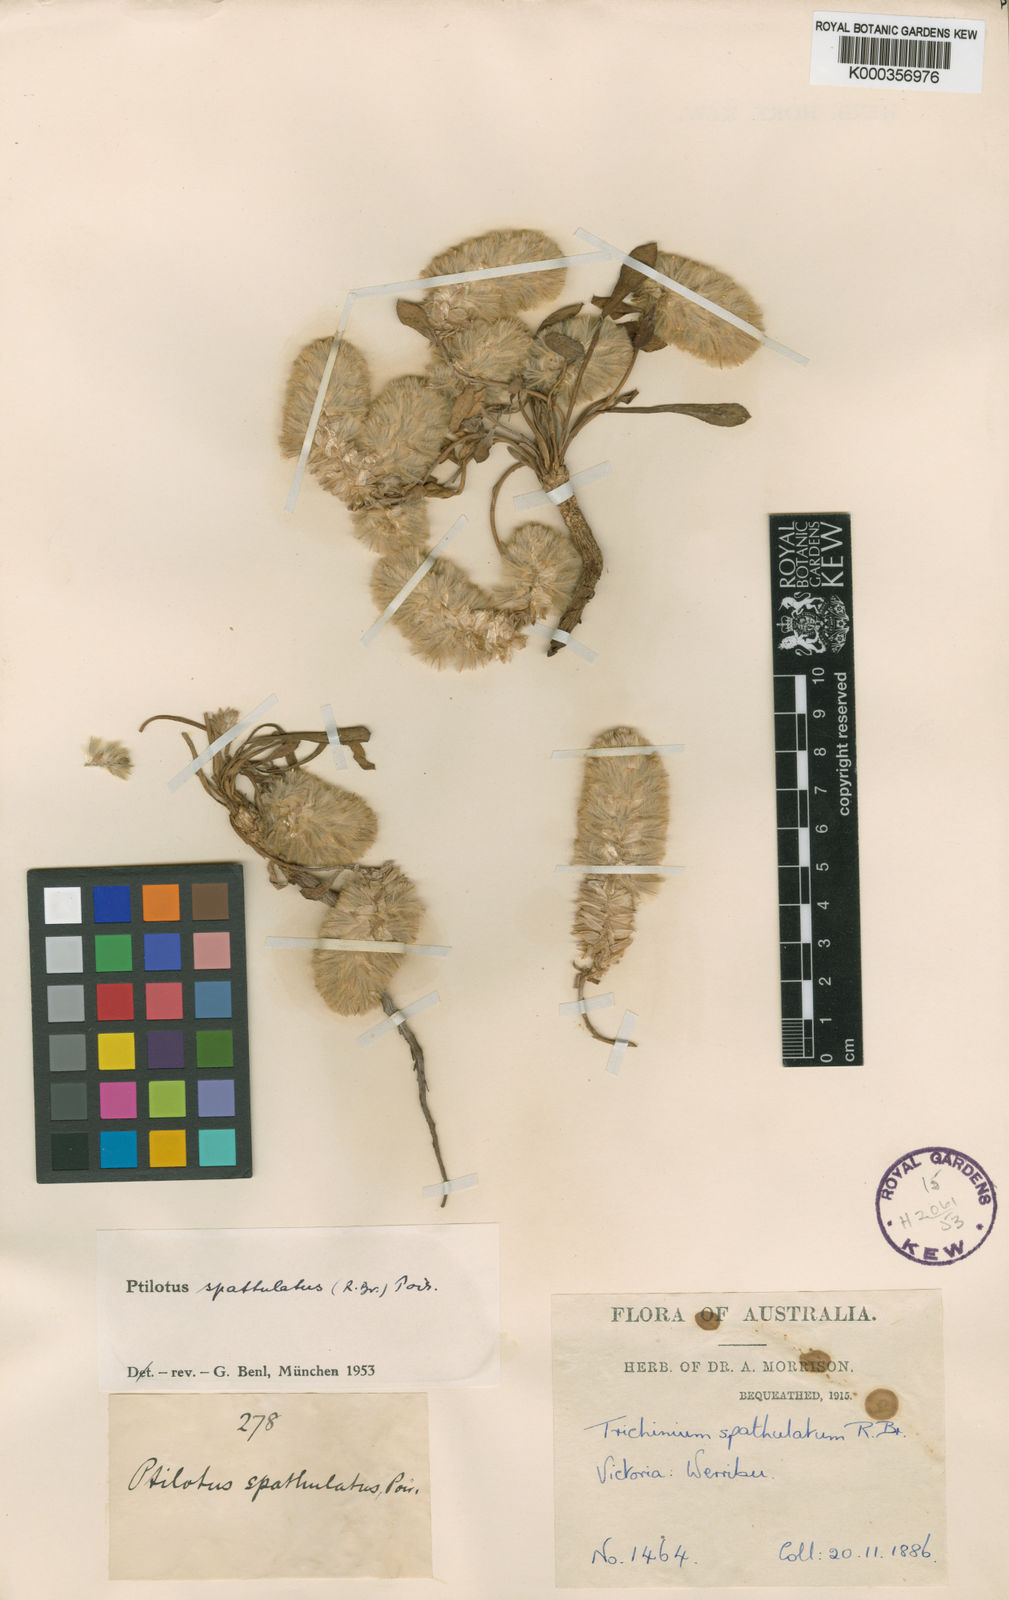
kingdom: Plantae
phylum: Tracheophyta
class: Magnoliopsida
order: Caryophyllales
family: Amaranthaceae
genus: Ptilotus
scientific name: Ptilotus spathulatus
